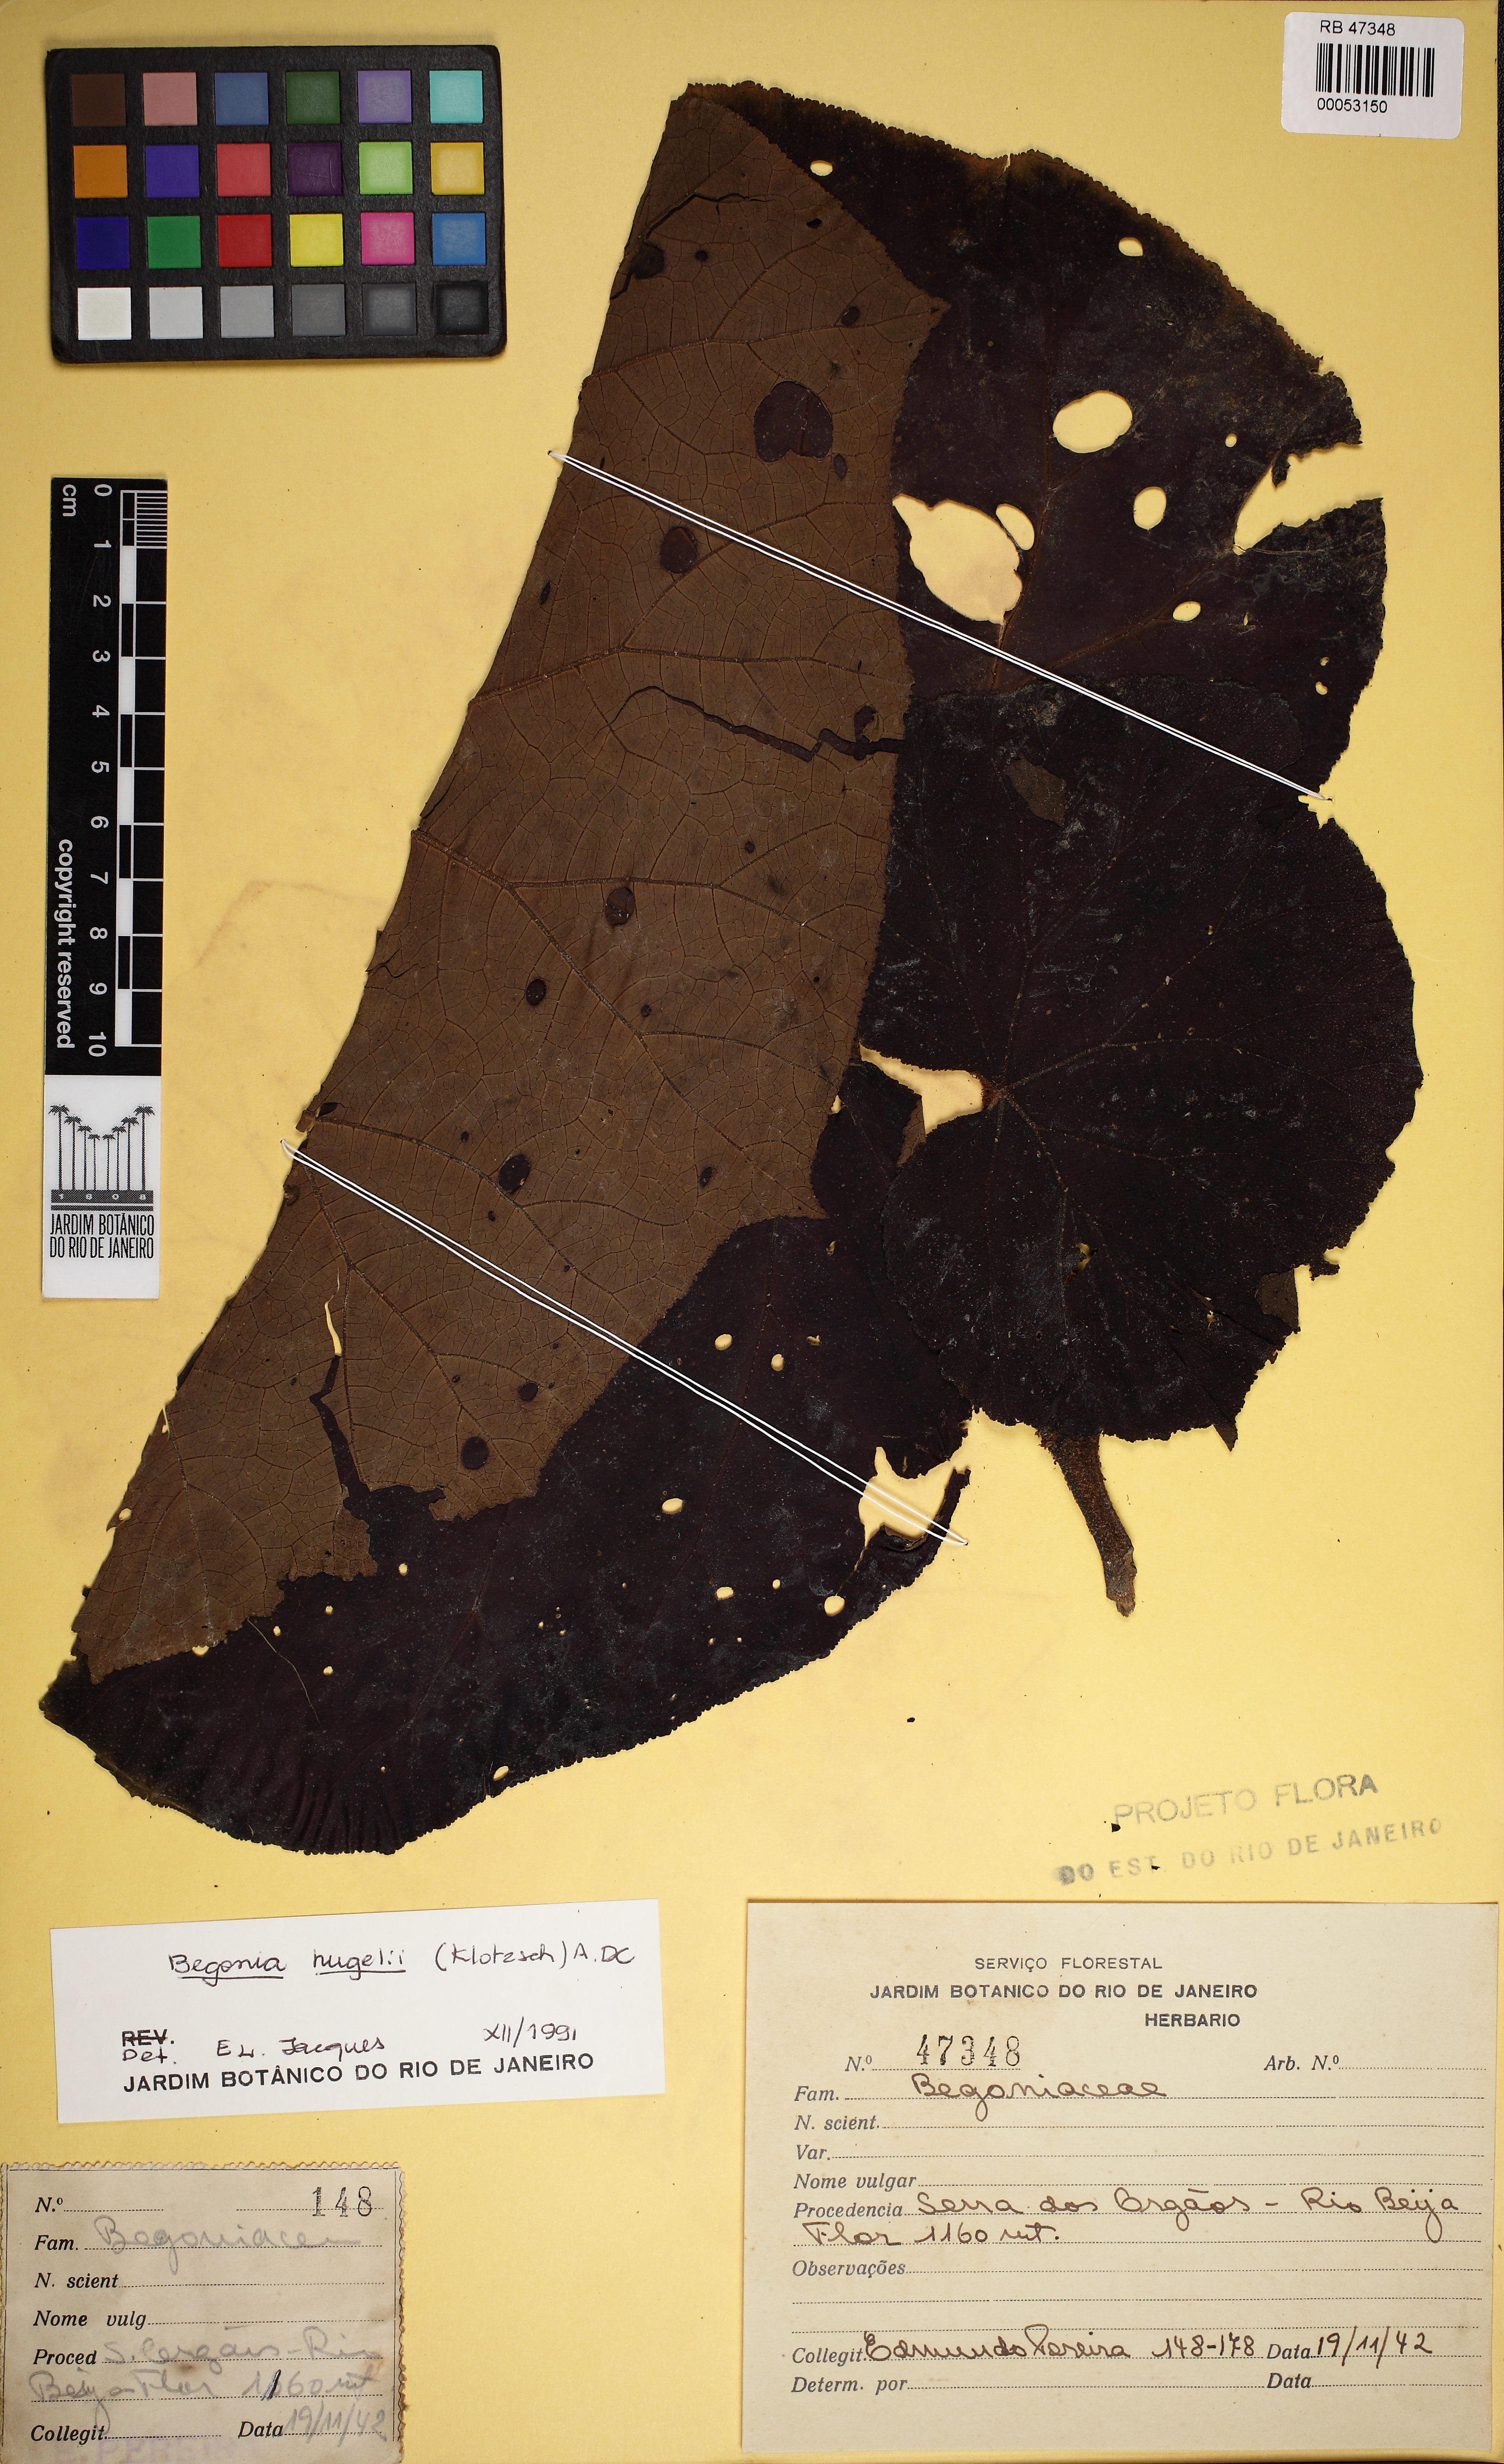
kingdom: Plantae
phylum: Tracheophyta
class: Magnoliopsida
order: Cucurbitales
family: Begoniaceae
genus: Begonia
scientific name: Begonia huegelii
